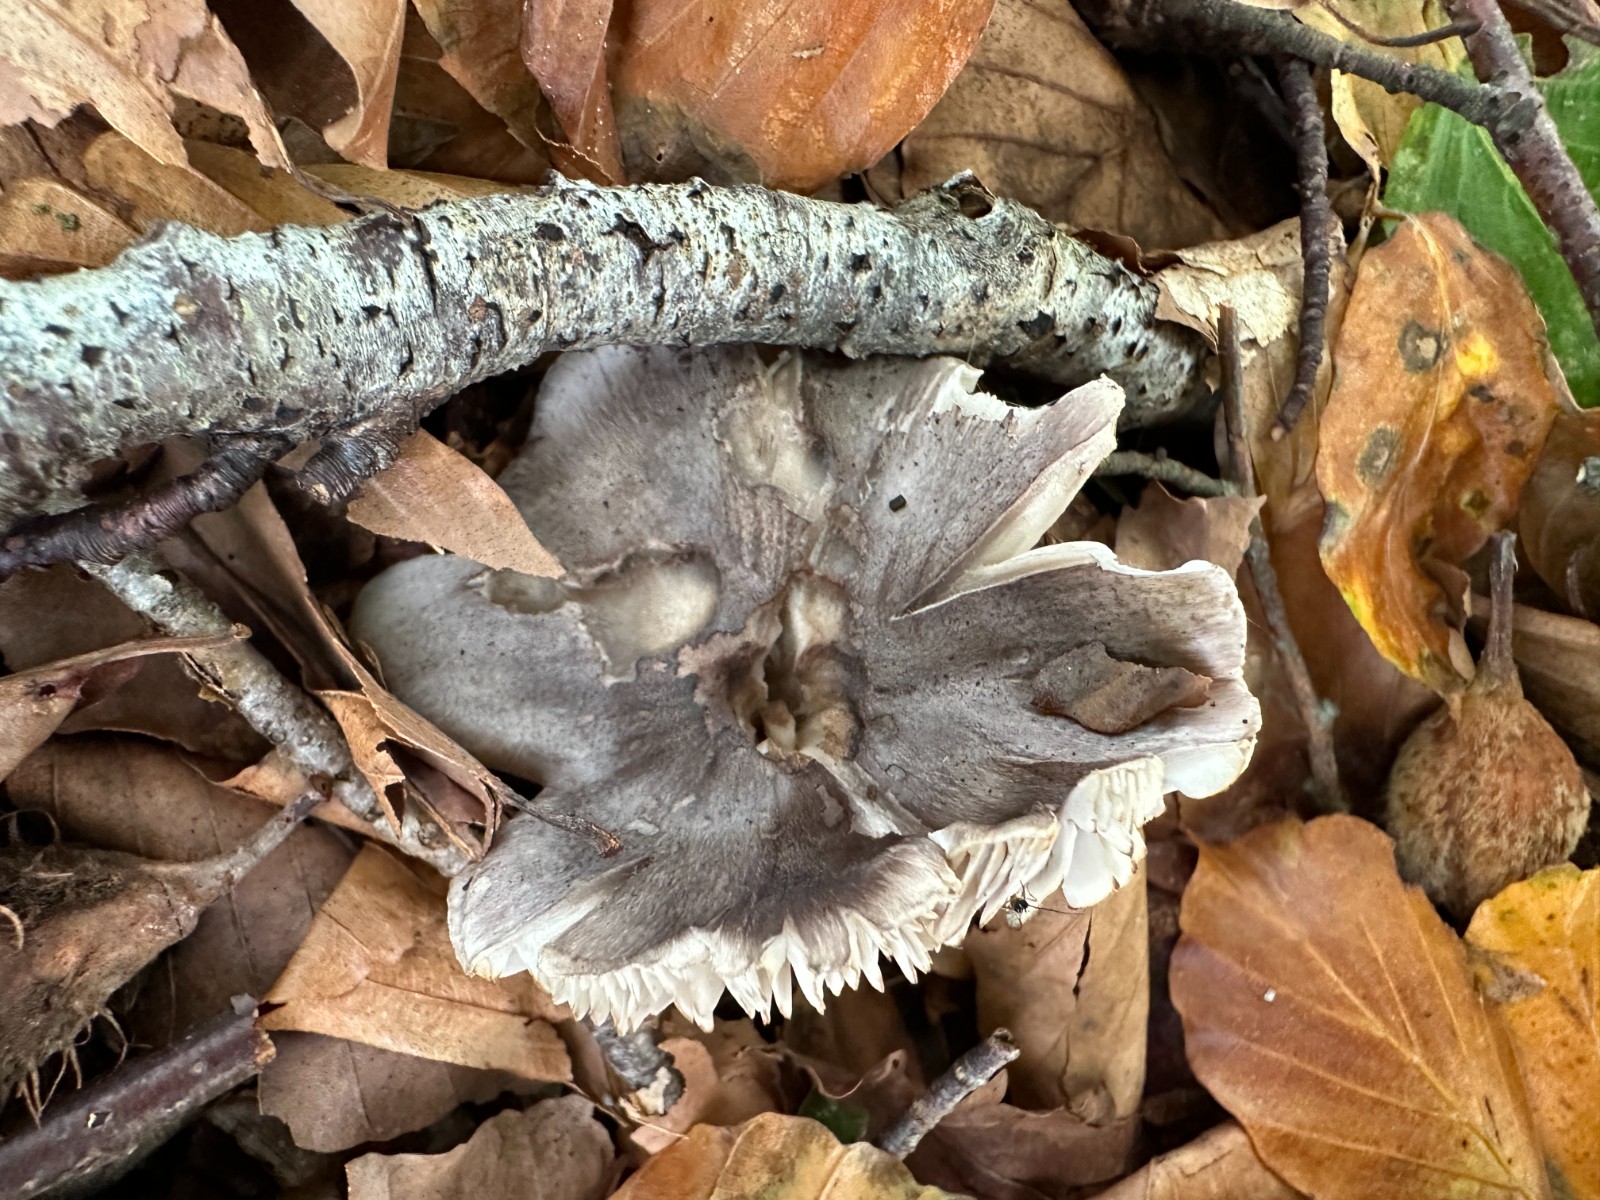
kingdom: Fungi
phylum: Basidiomycota
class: Agaricomycetes
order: Agaricales
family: Tricholomataceae
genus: Tricholoma
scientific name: Tricholoma sciodes
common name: stribet ridderhat
